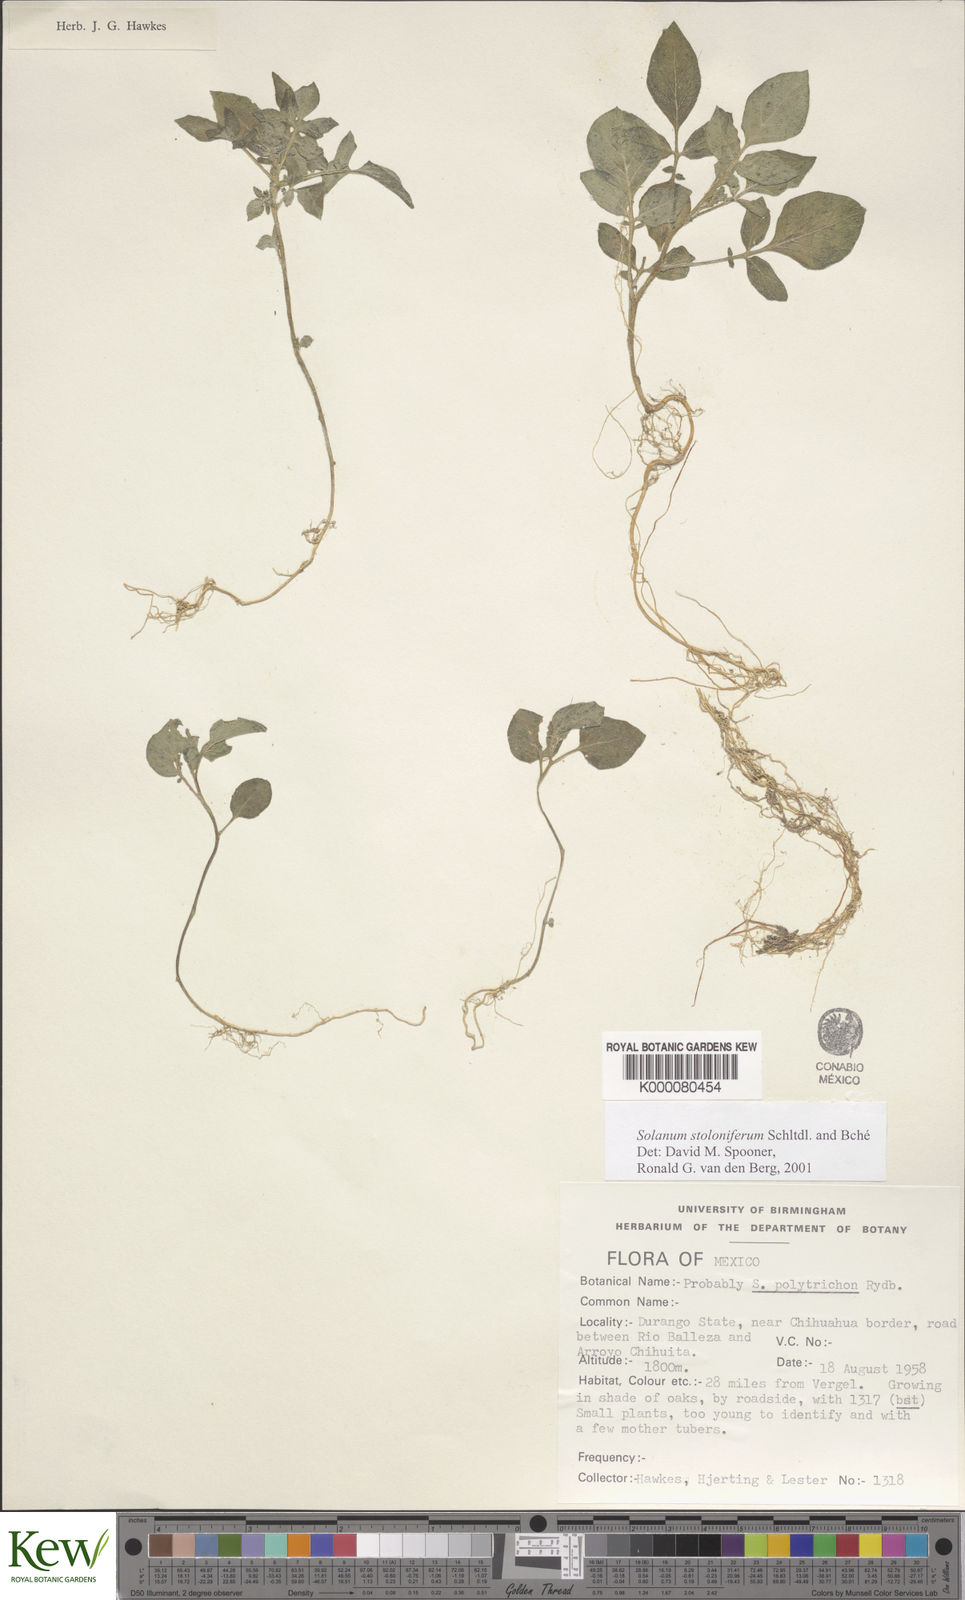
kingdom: Plantae
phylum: Tracheophyta
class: Magnoliopsida
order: Solanales
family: Solanaceae
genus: Solanum
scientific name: Solanum stoloniferum
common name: Fendler's nighshade
